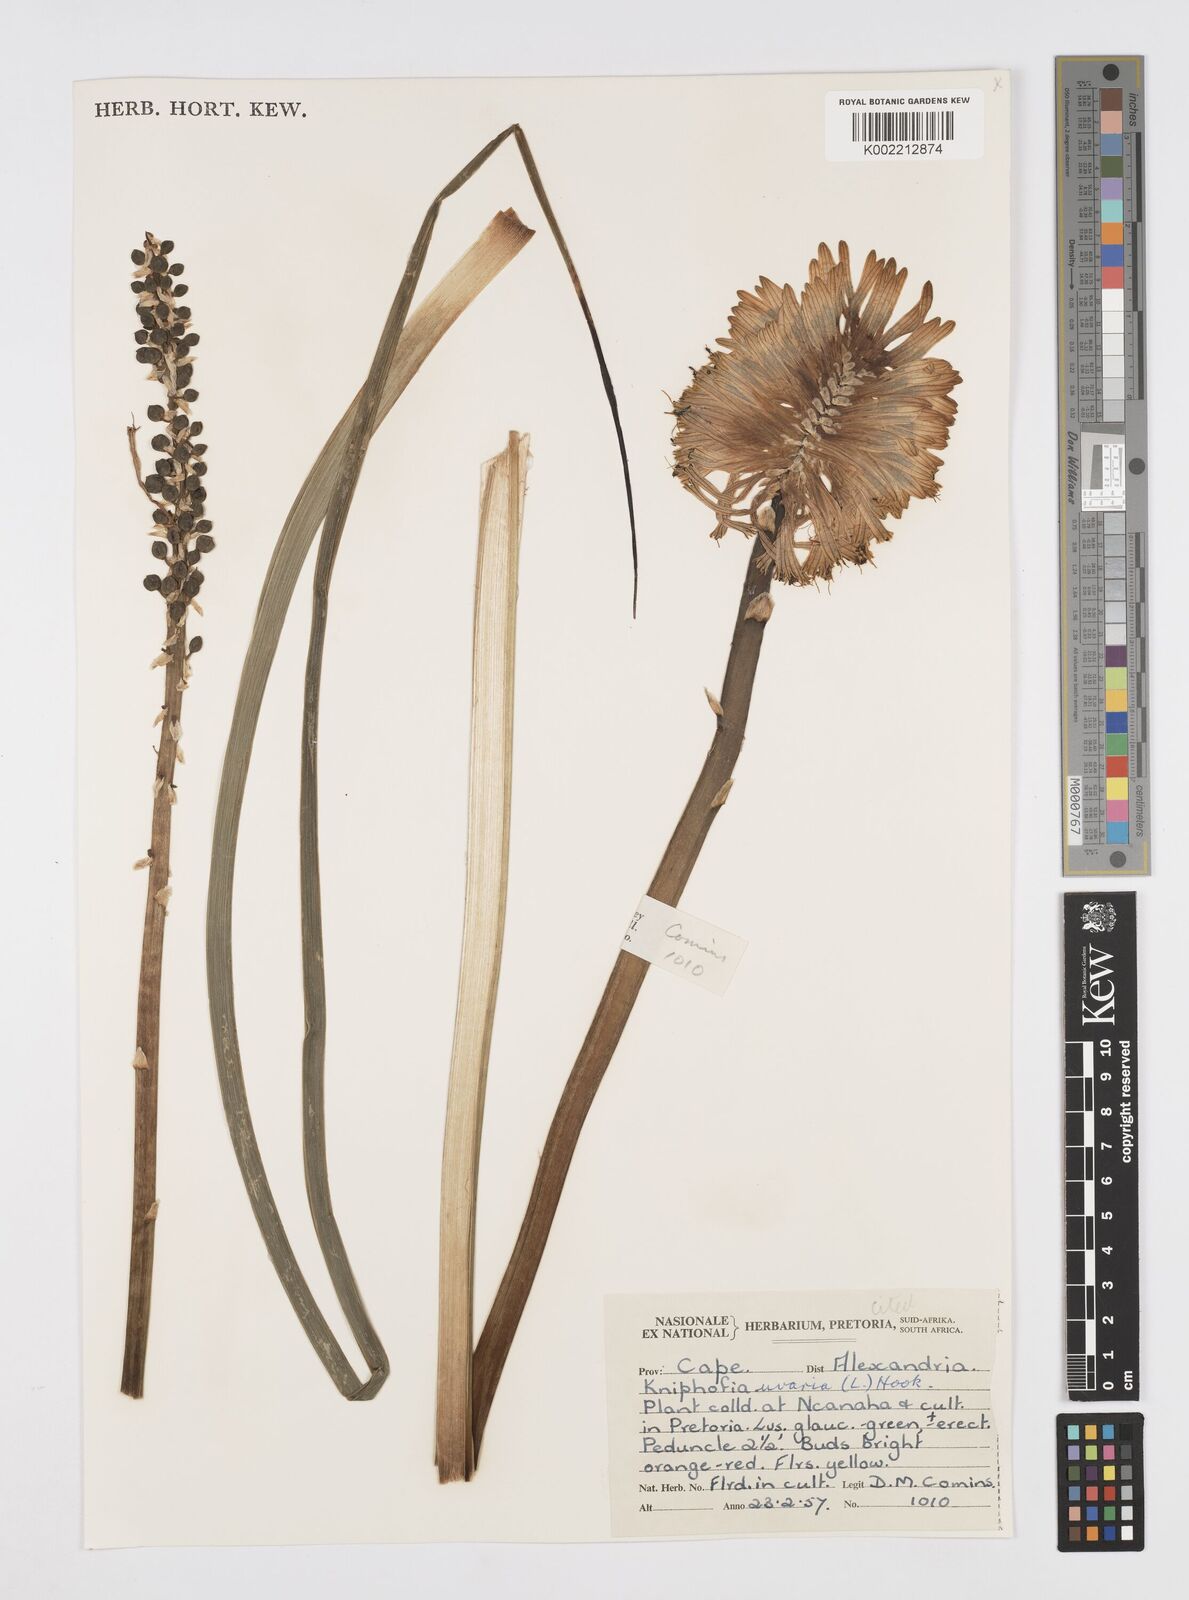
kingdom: Plantae
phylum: Tracheophyta
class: Liliopsida
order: Asparagales
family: Asphodelaceae
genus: Kniphofia
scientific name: Kniphofia uvaria
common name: Red-hot-poker
